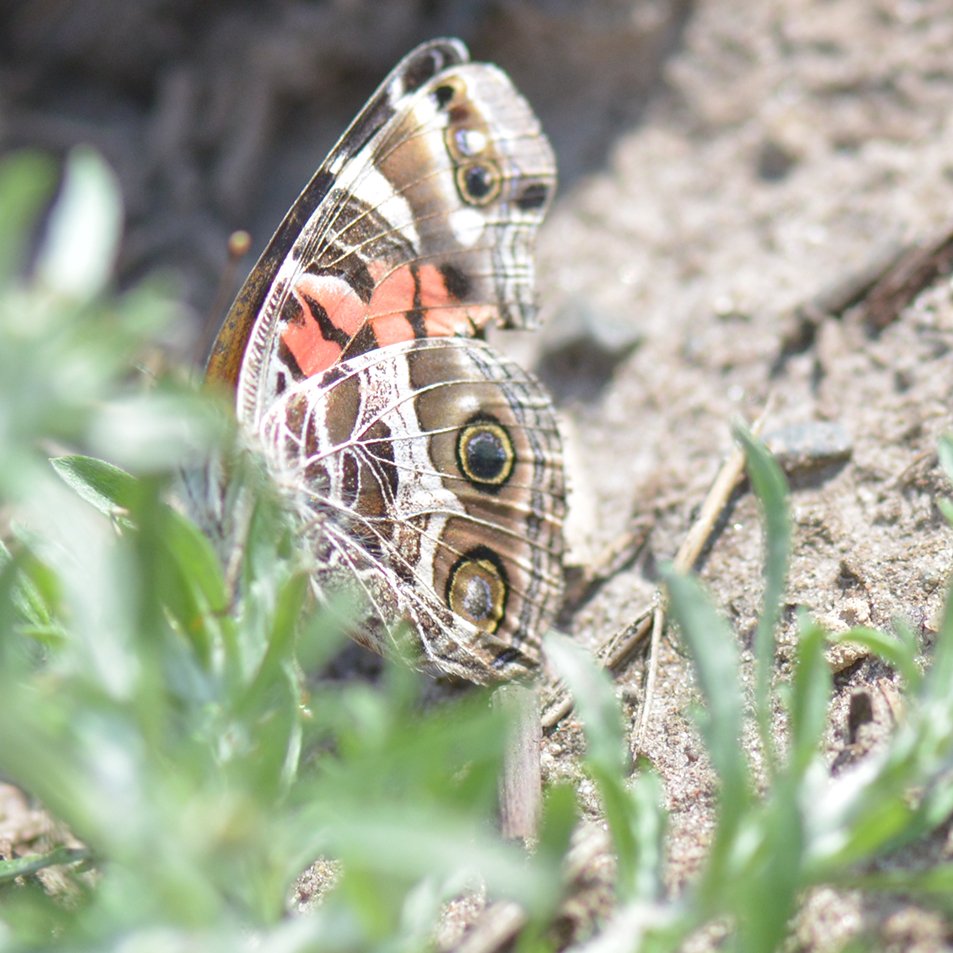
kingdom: Animalia
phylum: Arthropoda
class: Insecta
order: Lepidoptera
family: Nymphalidae
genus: Vanessa
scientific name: Vanessa virginiensis
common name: American Lady
